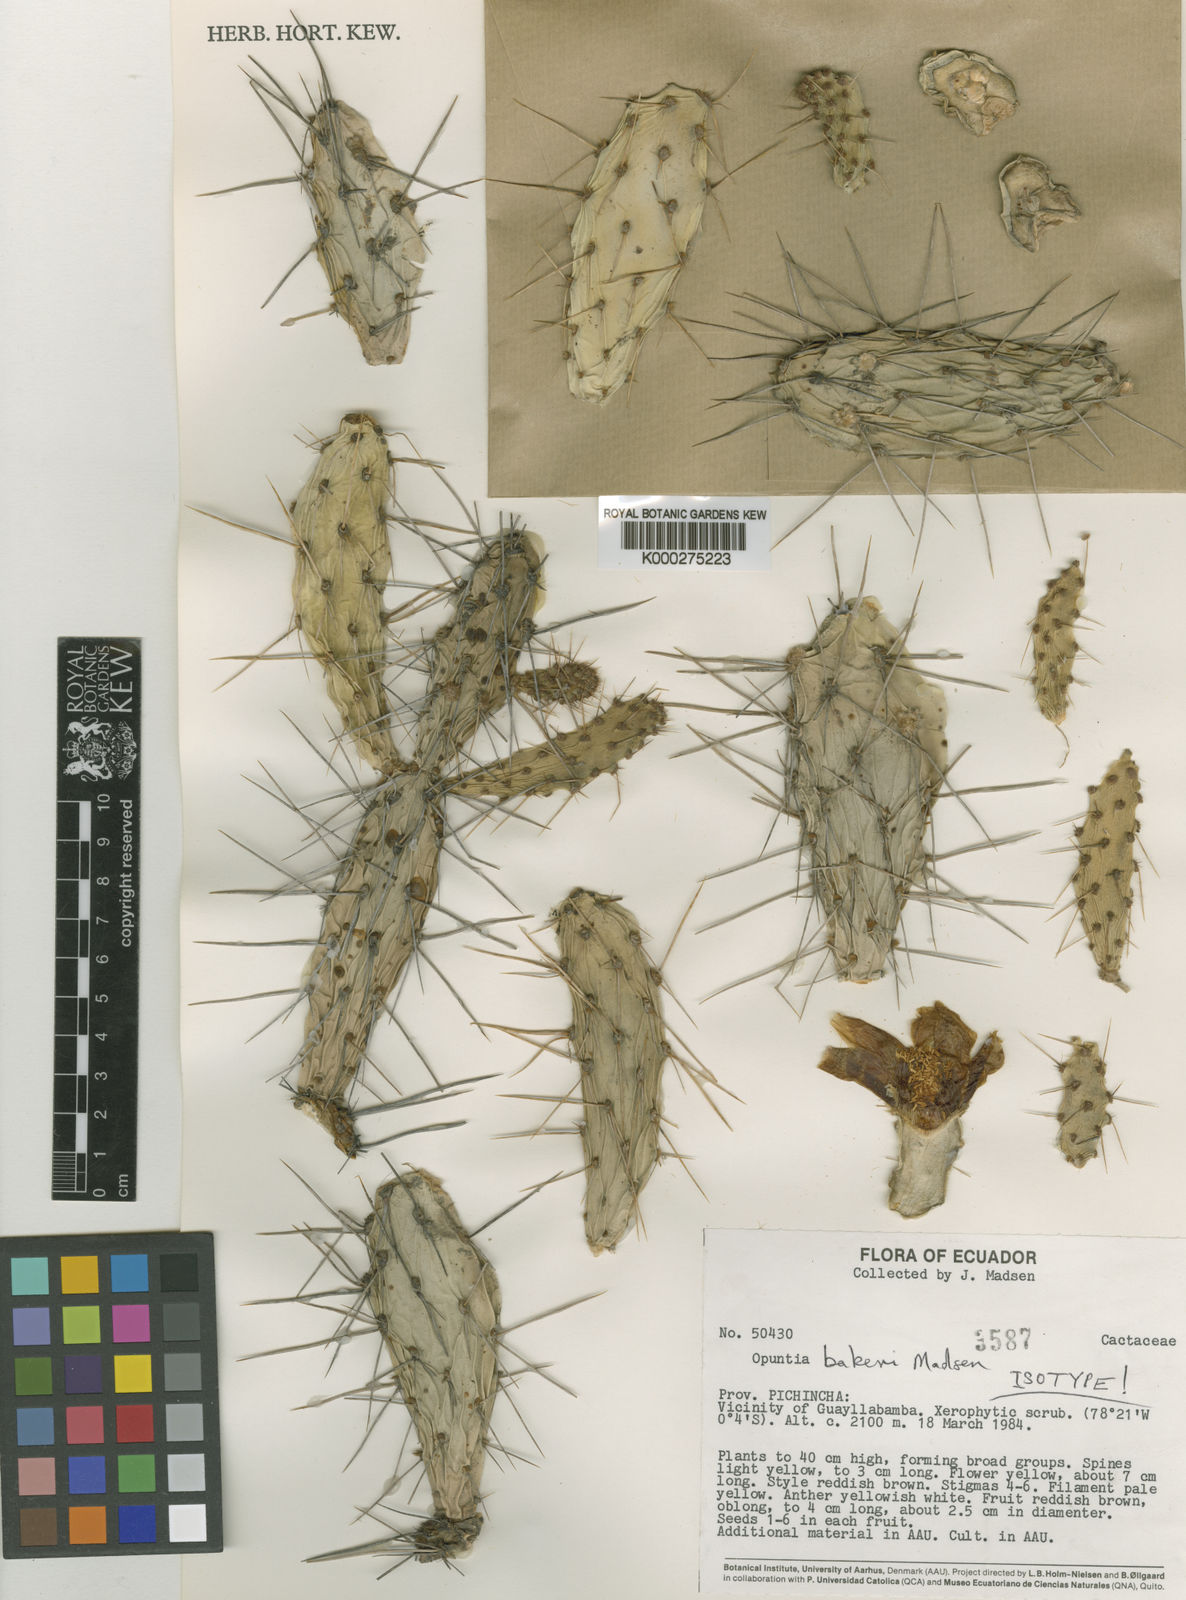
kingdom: Plantae
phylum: Tracheophyta
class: Magnoliopsida
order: Caryophyllales
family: Cactaceae
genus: Opuntia
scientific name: Opuntia aequatorialis
